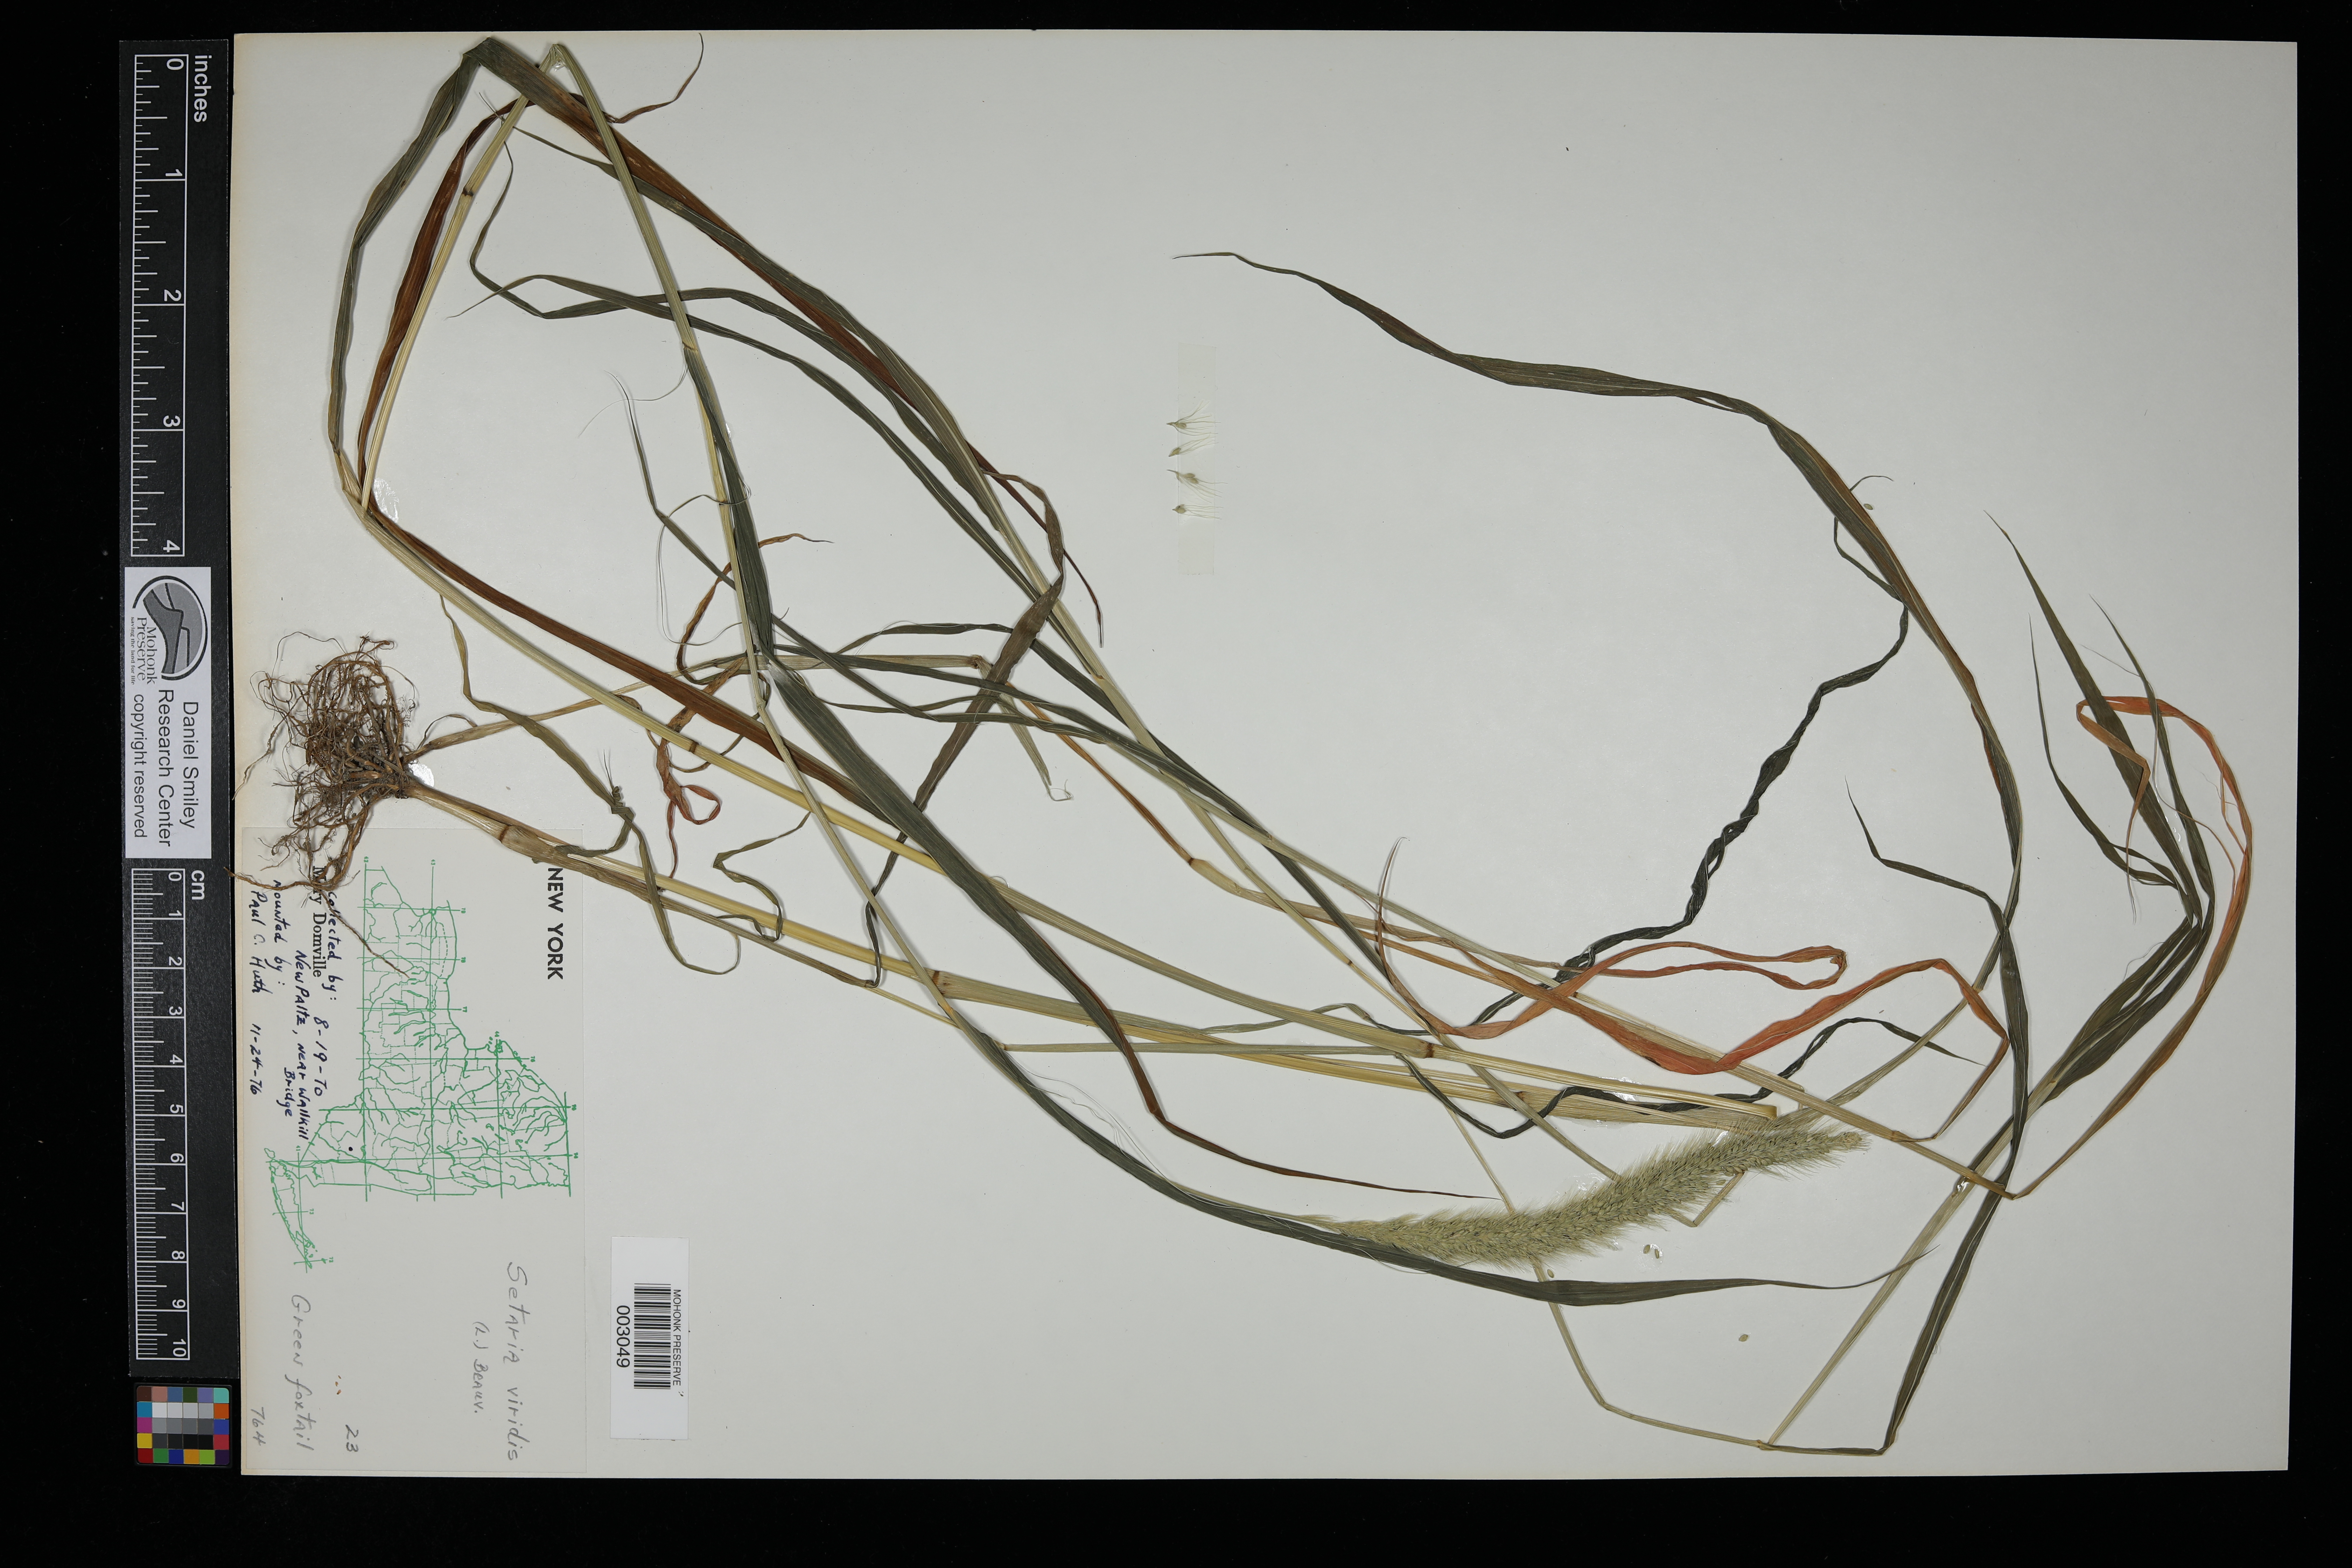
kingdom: Plantae
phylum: Tracheophyta
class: Liliopsida
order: Poales
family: Poaceae
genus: Setaria
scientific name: Setaria viridis
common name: Green bristlegrass
